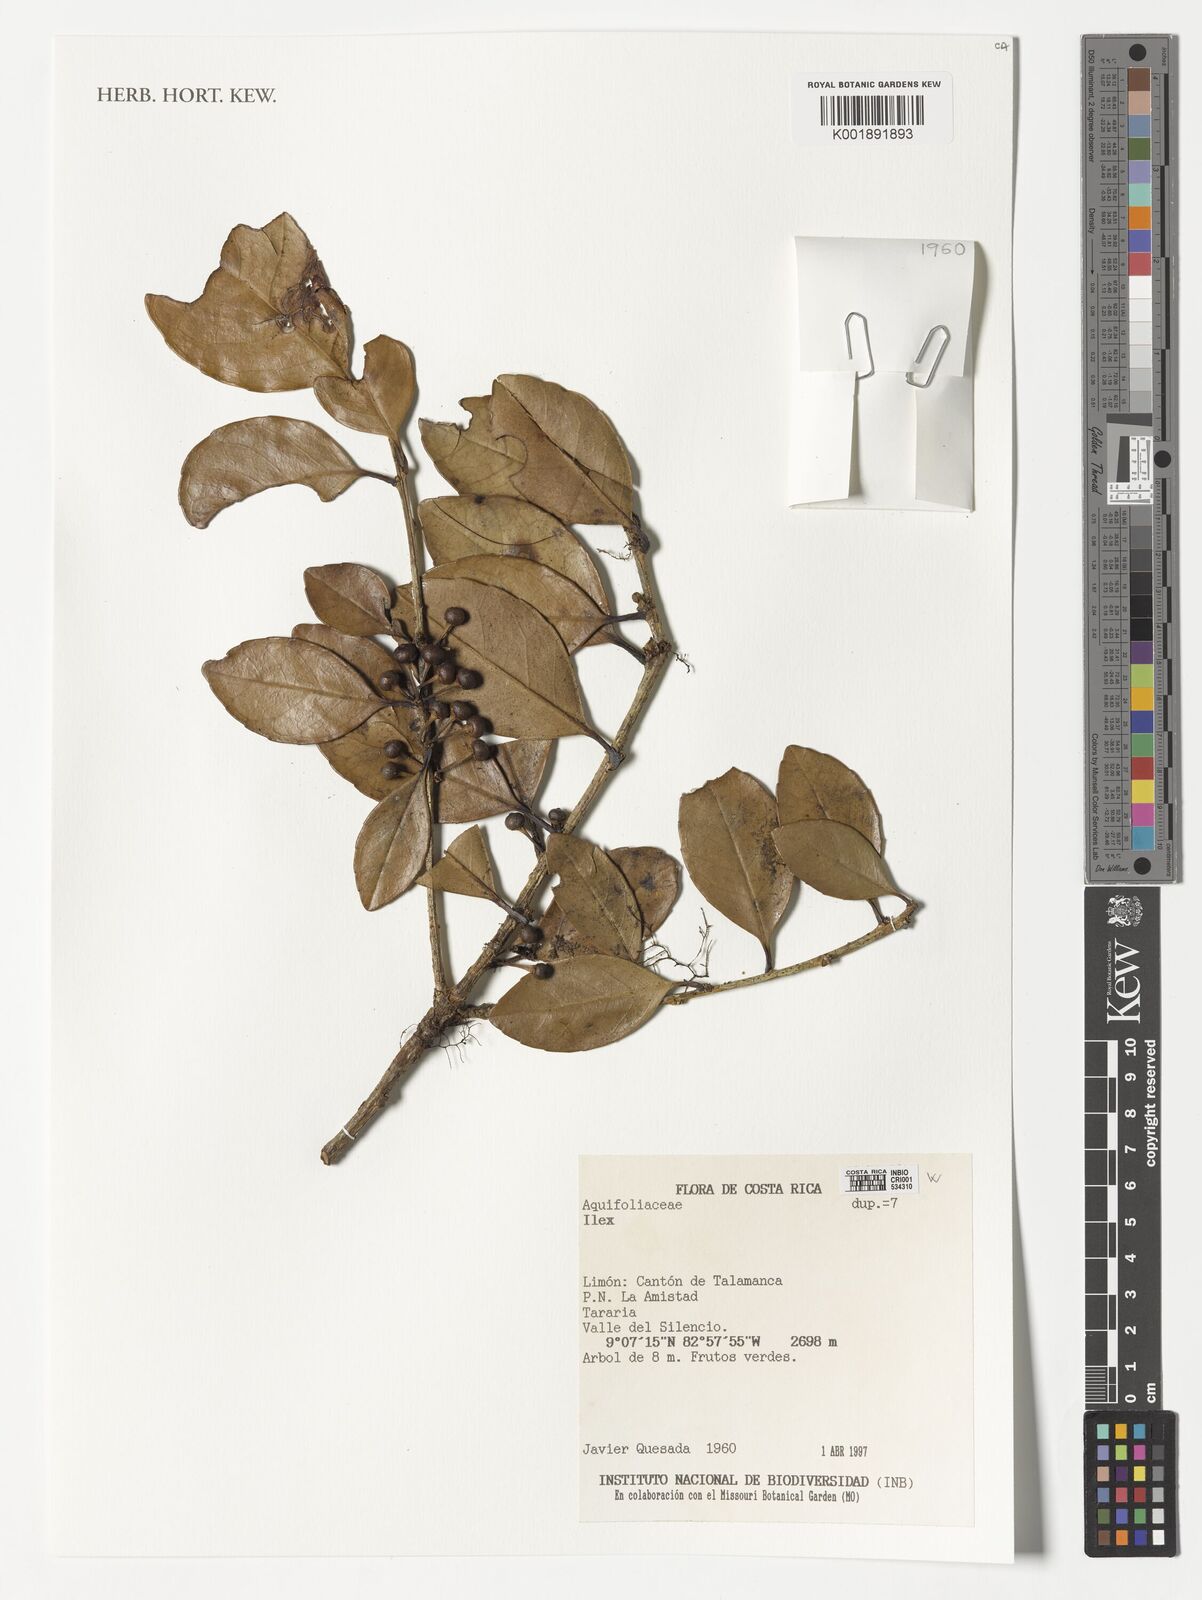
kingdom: Plantae
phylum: Tracheophyta
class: Magnoliopsida
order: Aquifoliales
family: Aquifoliaceae
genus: Ilex
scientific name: Ilex
